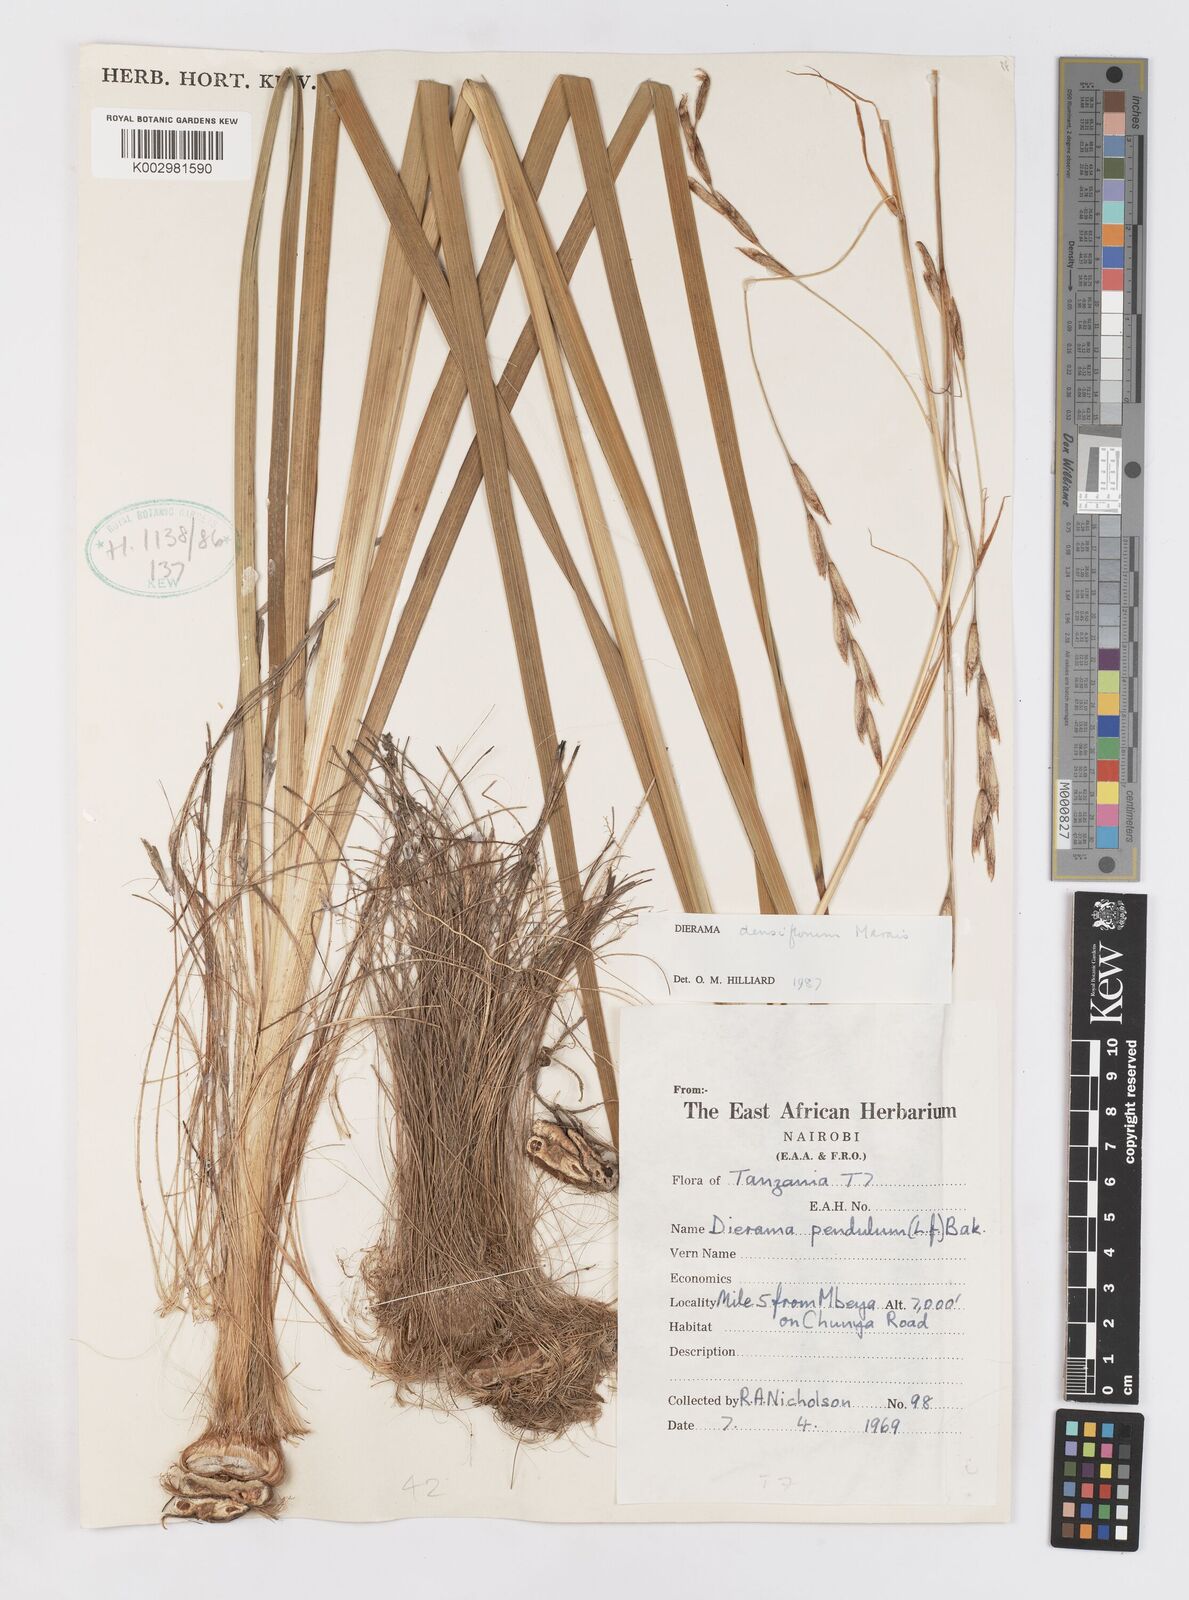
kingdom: Plantae
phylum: Tracheophyta
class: Liliopsida
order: Asparagales
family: Iridaceae
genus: Dierama
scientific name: Dierama densiflorum
